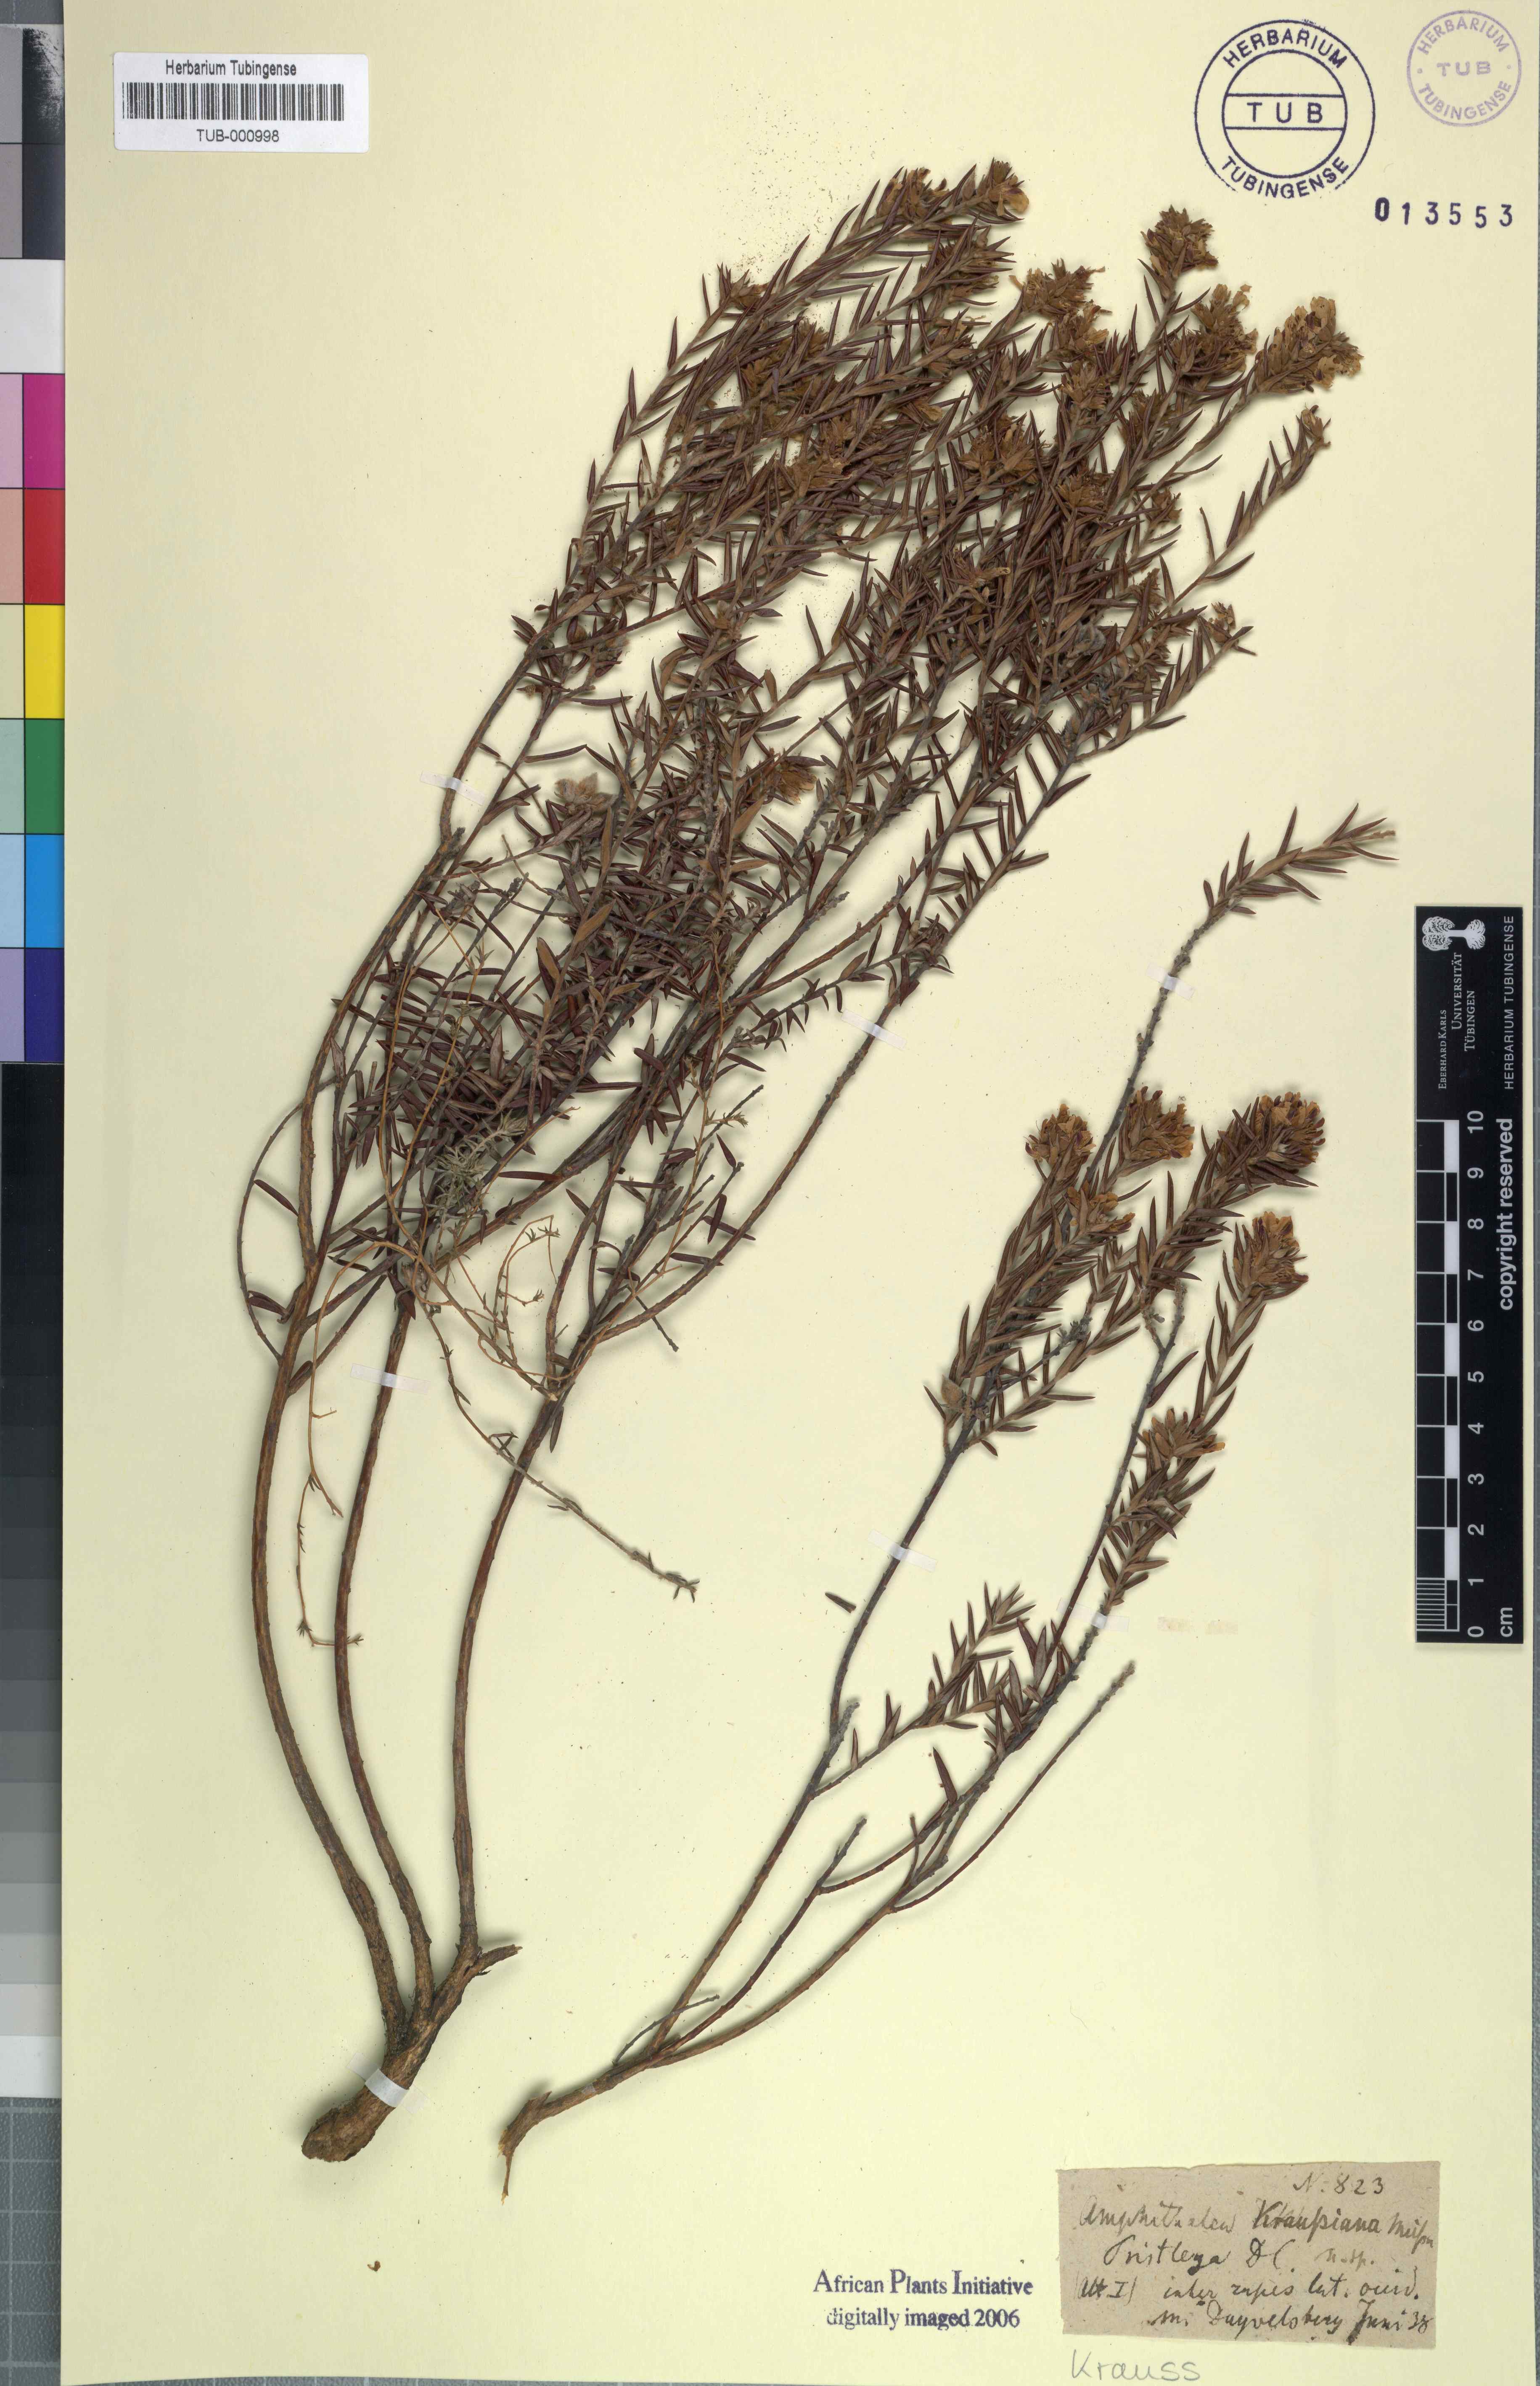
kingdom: Plantae
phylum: Tracheophyta
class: Magnoliopsida
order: Fabales
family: Fabaceae
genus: Amphithalea
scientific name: Amphithalea virgata
